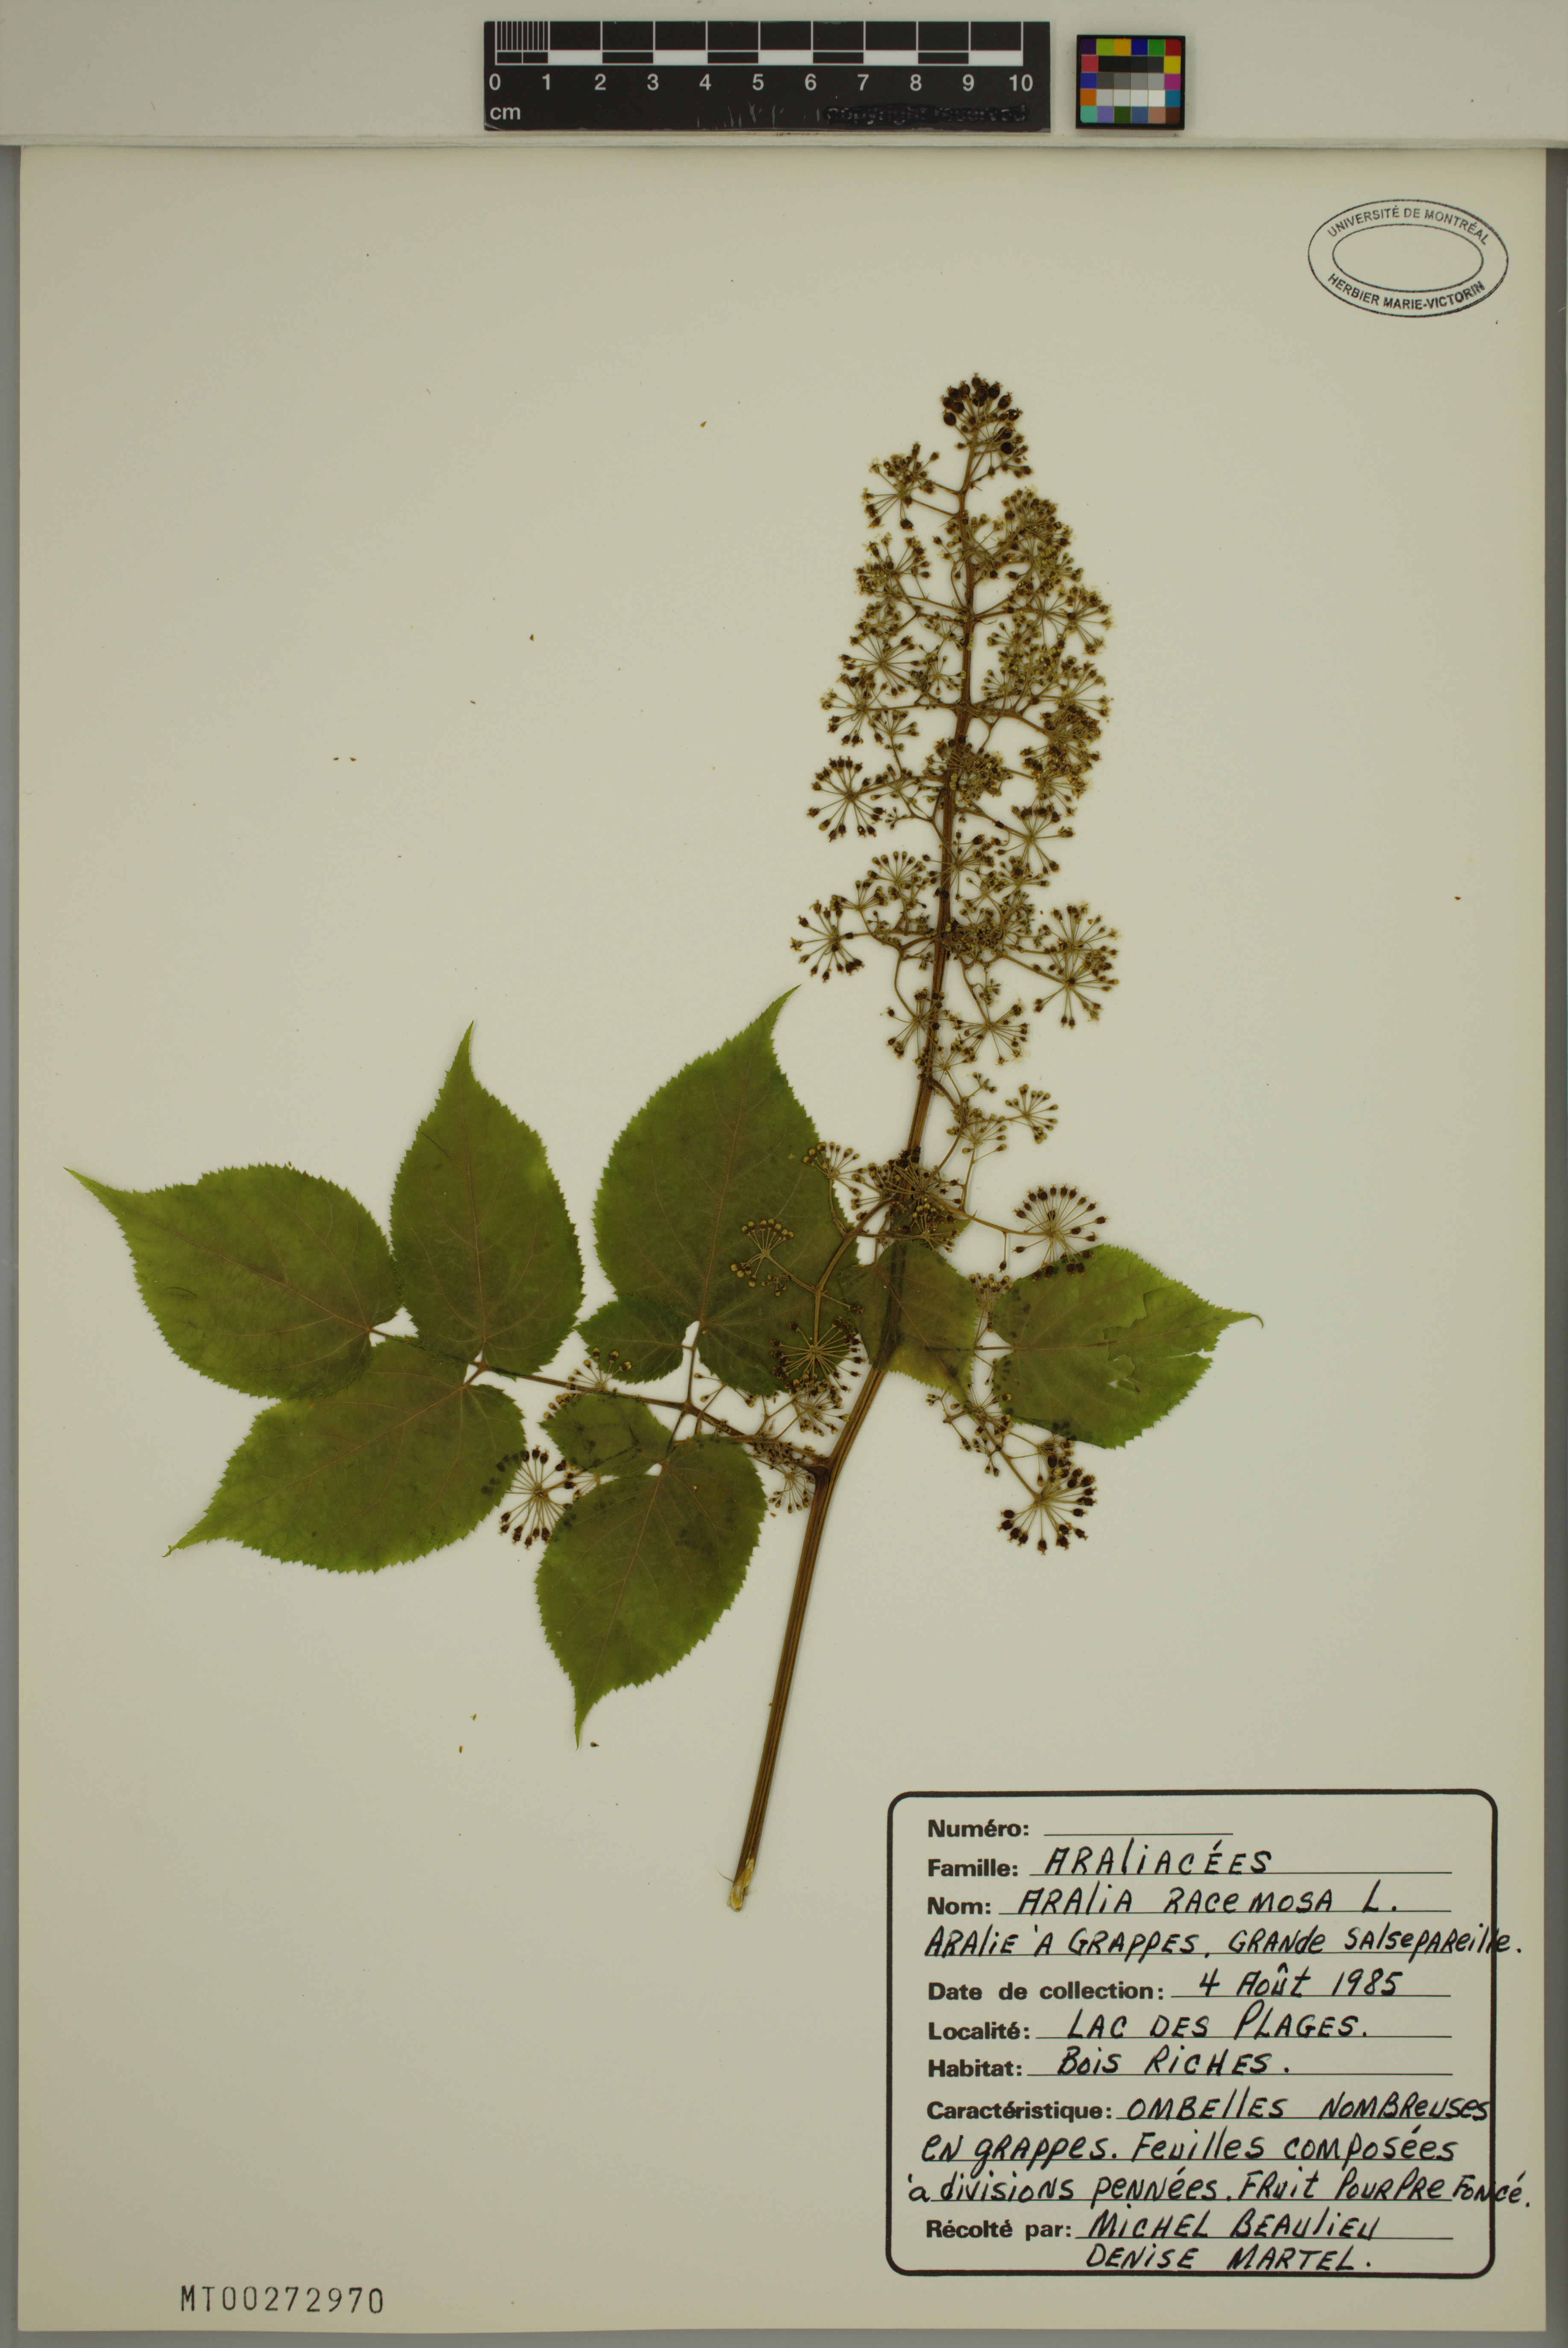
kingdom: Plantae
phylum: Tracheophyta
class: Magnoliopsida
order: Apiales
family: Araliaceae
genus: Aralia
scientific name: Aralia racemosa
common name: American-spikenard
